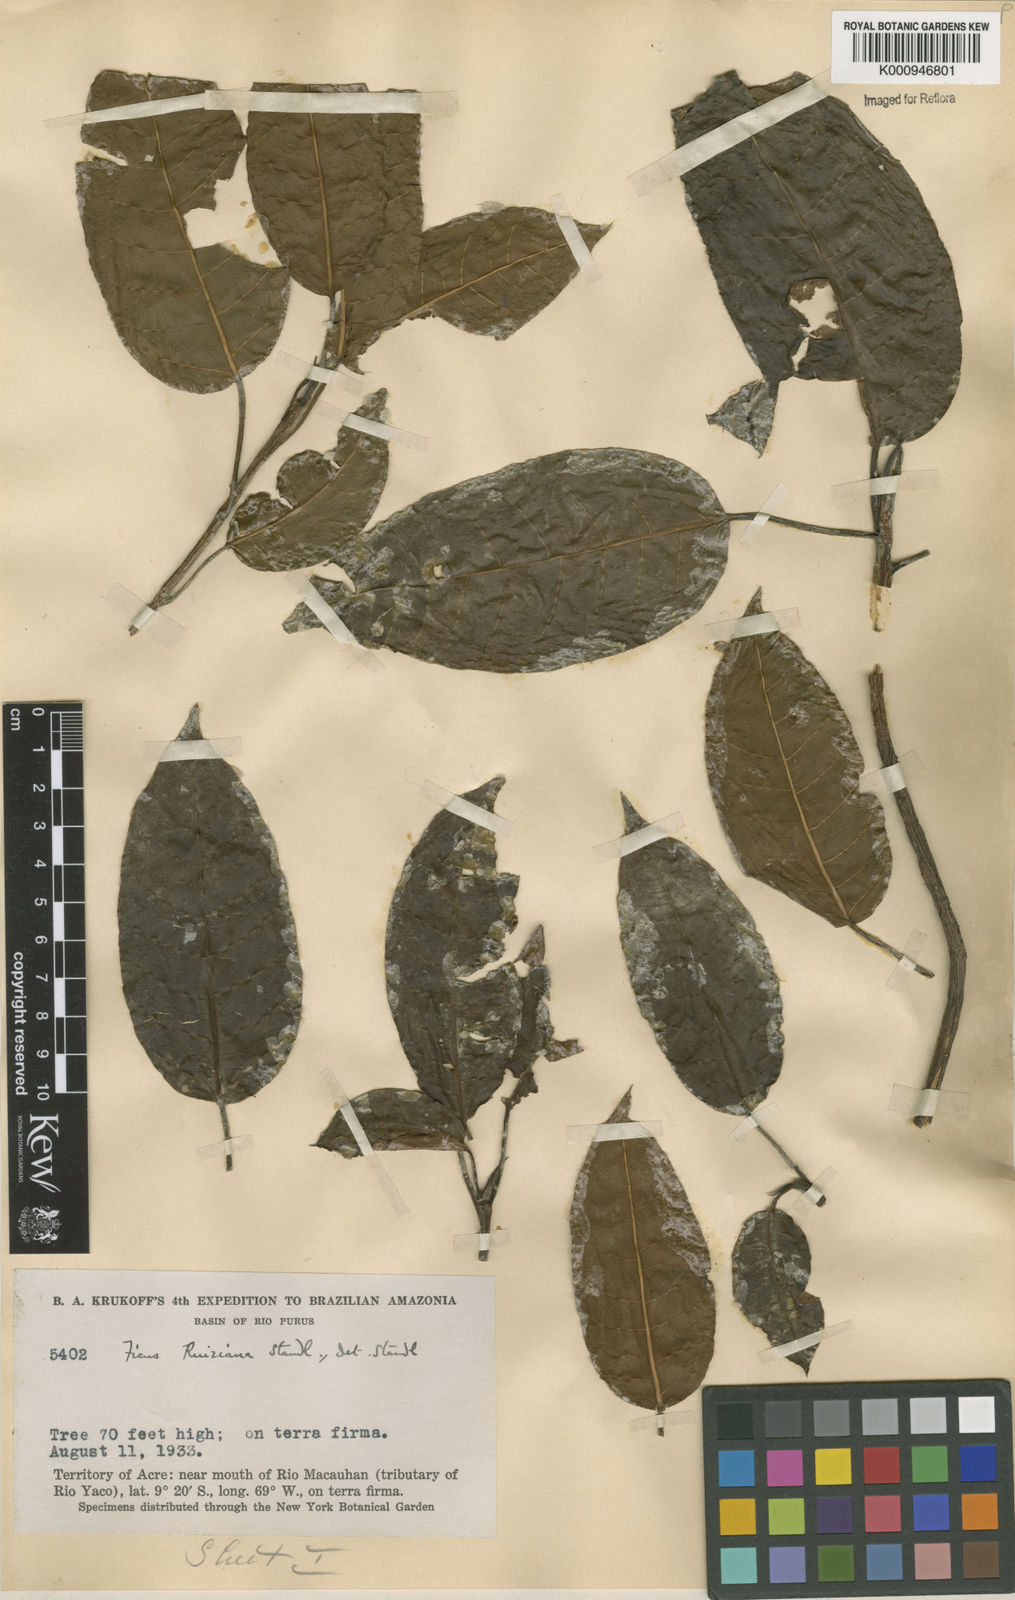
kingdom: Plantae
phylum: Tracheophyta
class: Magnoliopsida
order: Rosales
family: Moraceae
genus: Ficus
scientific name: Ficus citrifolia
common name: Strangler fig
